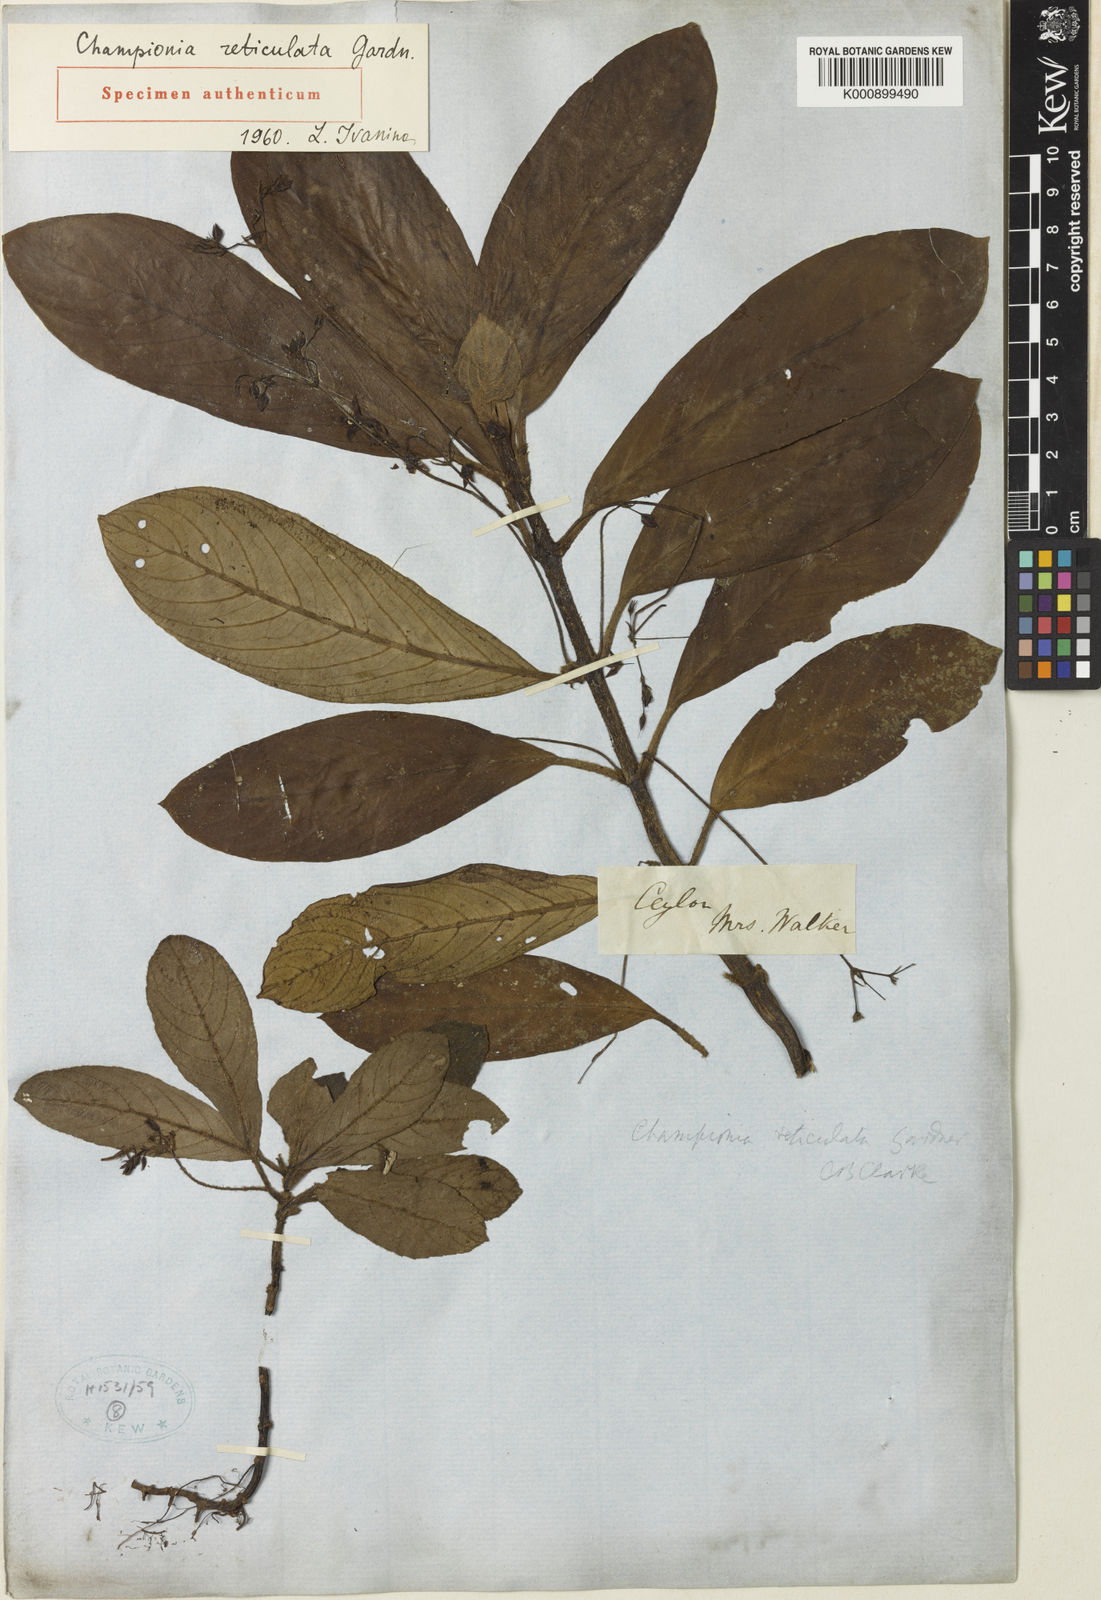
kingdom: Plantae
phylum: Tracheophyta
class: Magnoliopsida
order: Lamiales
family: Gesneriaceae
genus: Championia
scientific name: Championia reticulata
